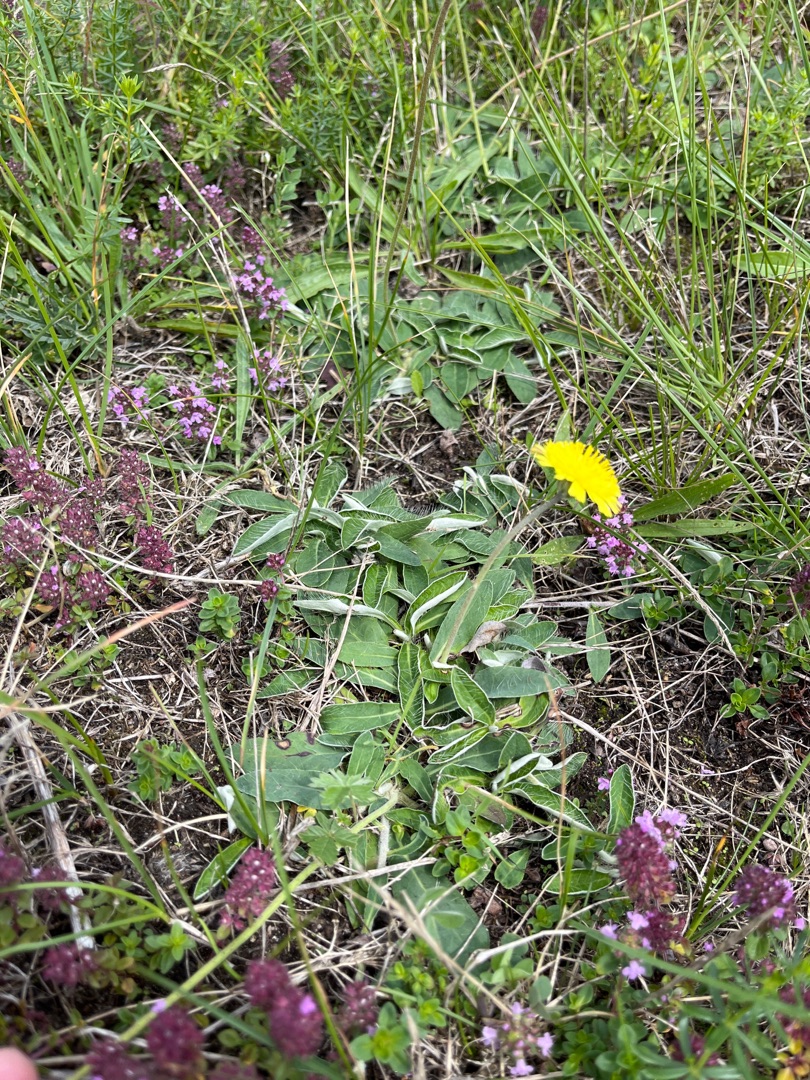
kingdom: Plantae
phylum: Tracheophyta
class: Magnoliopsida
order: Asterales
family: Asteraceae
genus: Pilosella
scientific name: Pilosella officinarum
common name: Håret høgeurt
